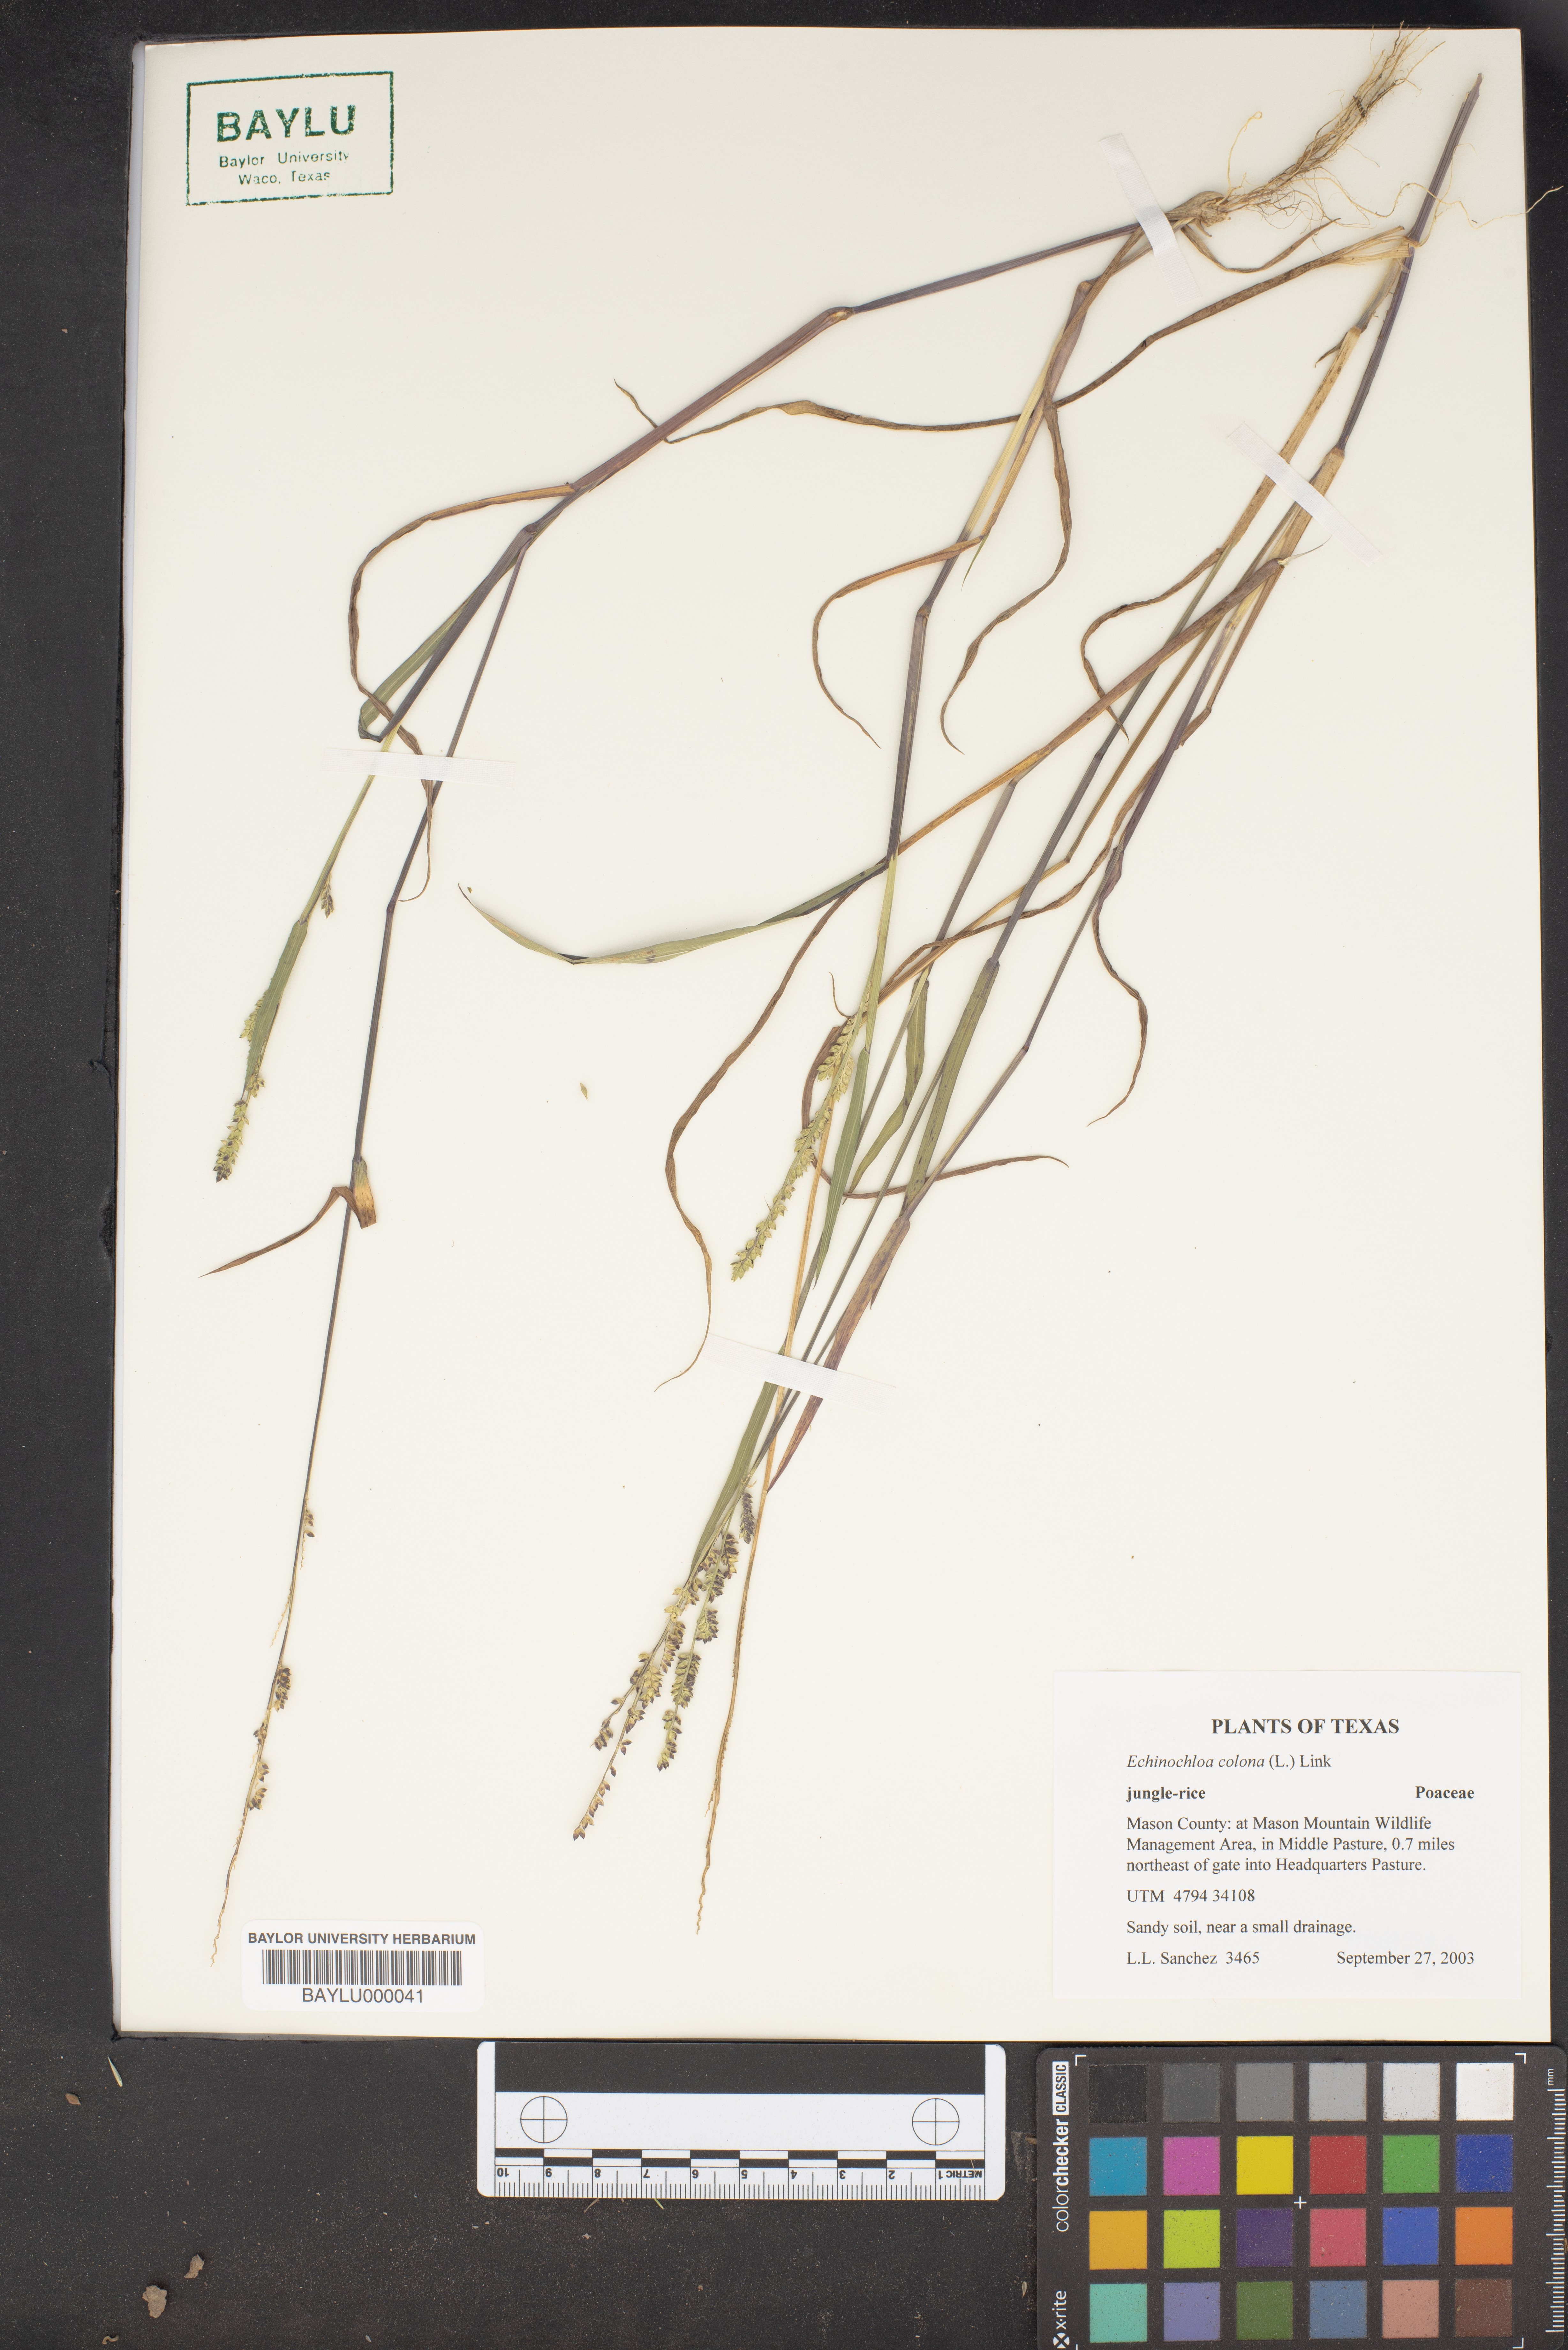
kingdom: Plantae
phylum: Tracheophyta
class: Liliopsida
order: Poales
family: Poaceae
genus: Echinochloa
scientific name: Echinochloa colonum
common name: Jungle rice
